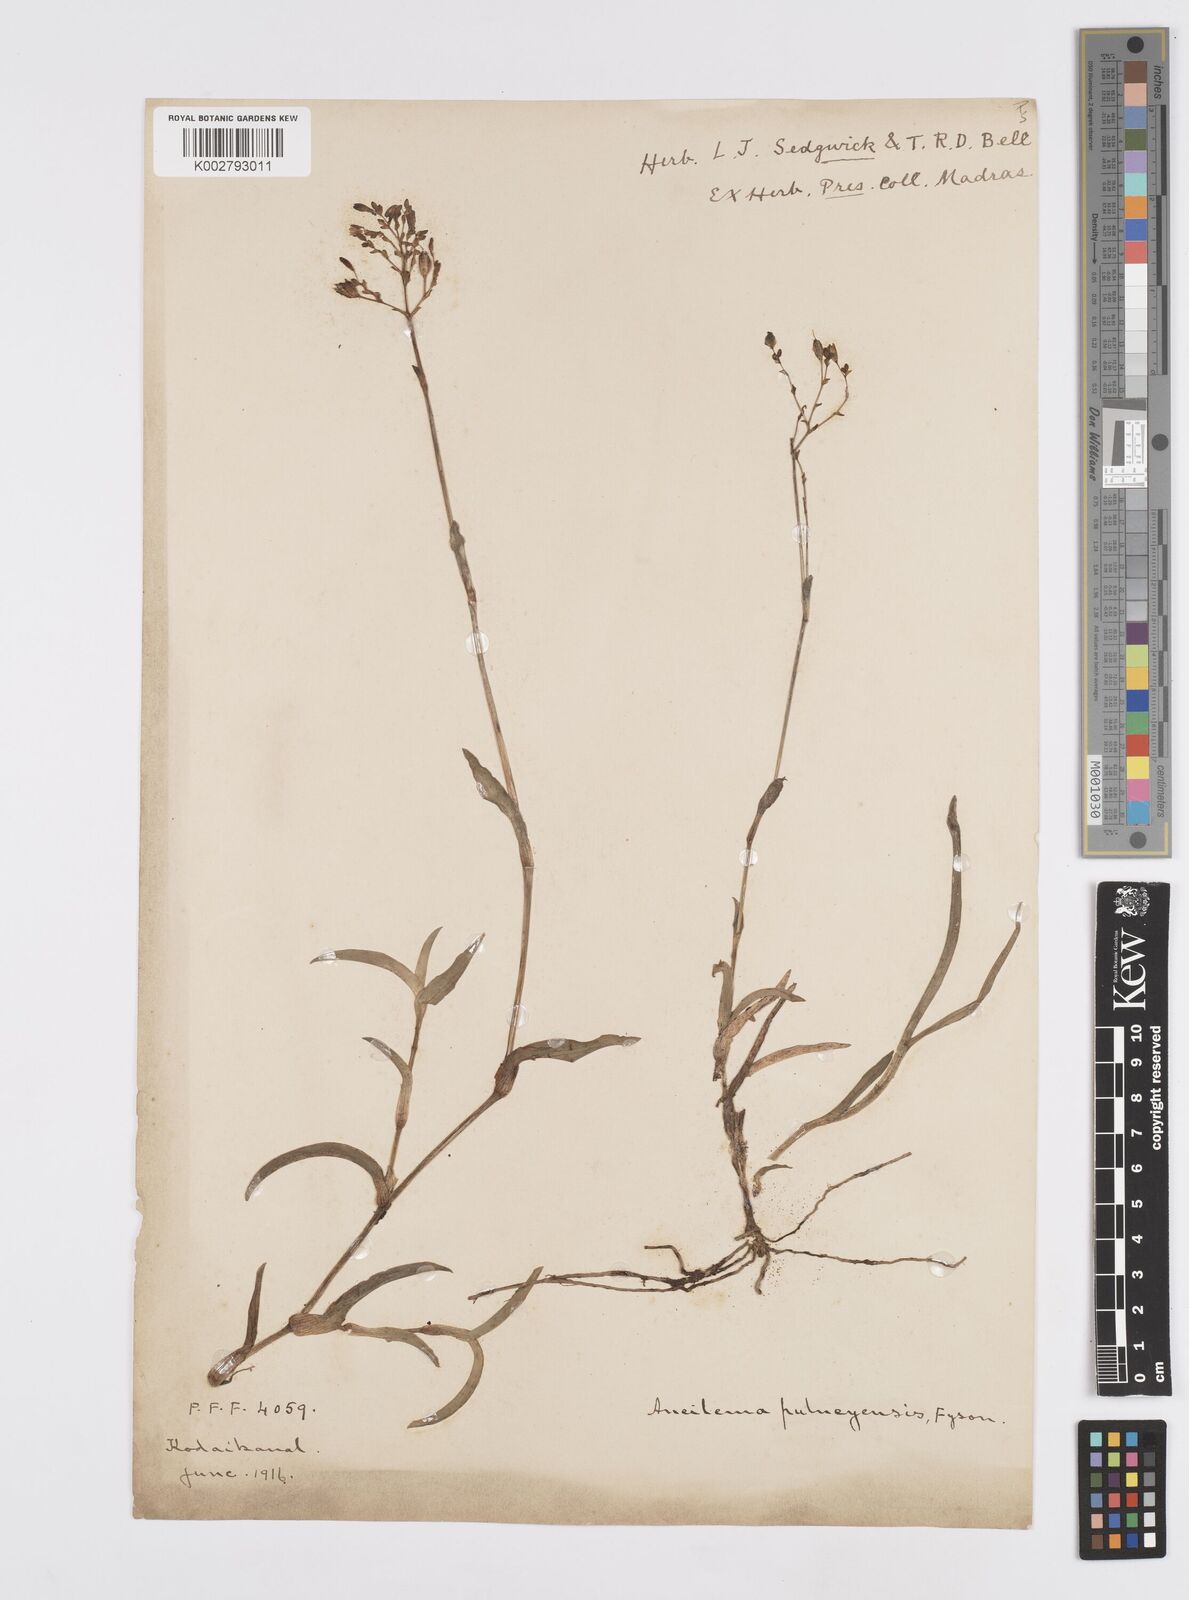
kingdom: Plantae
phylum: Tracheophyta
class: Liliopsida
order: Commelinales
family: Commelinaceae
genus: Murdannia
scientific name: Murdannia
